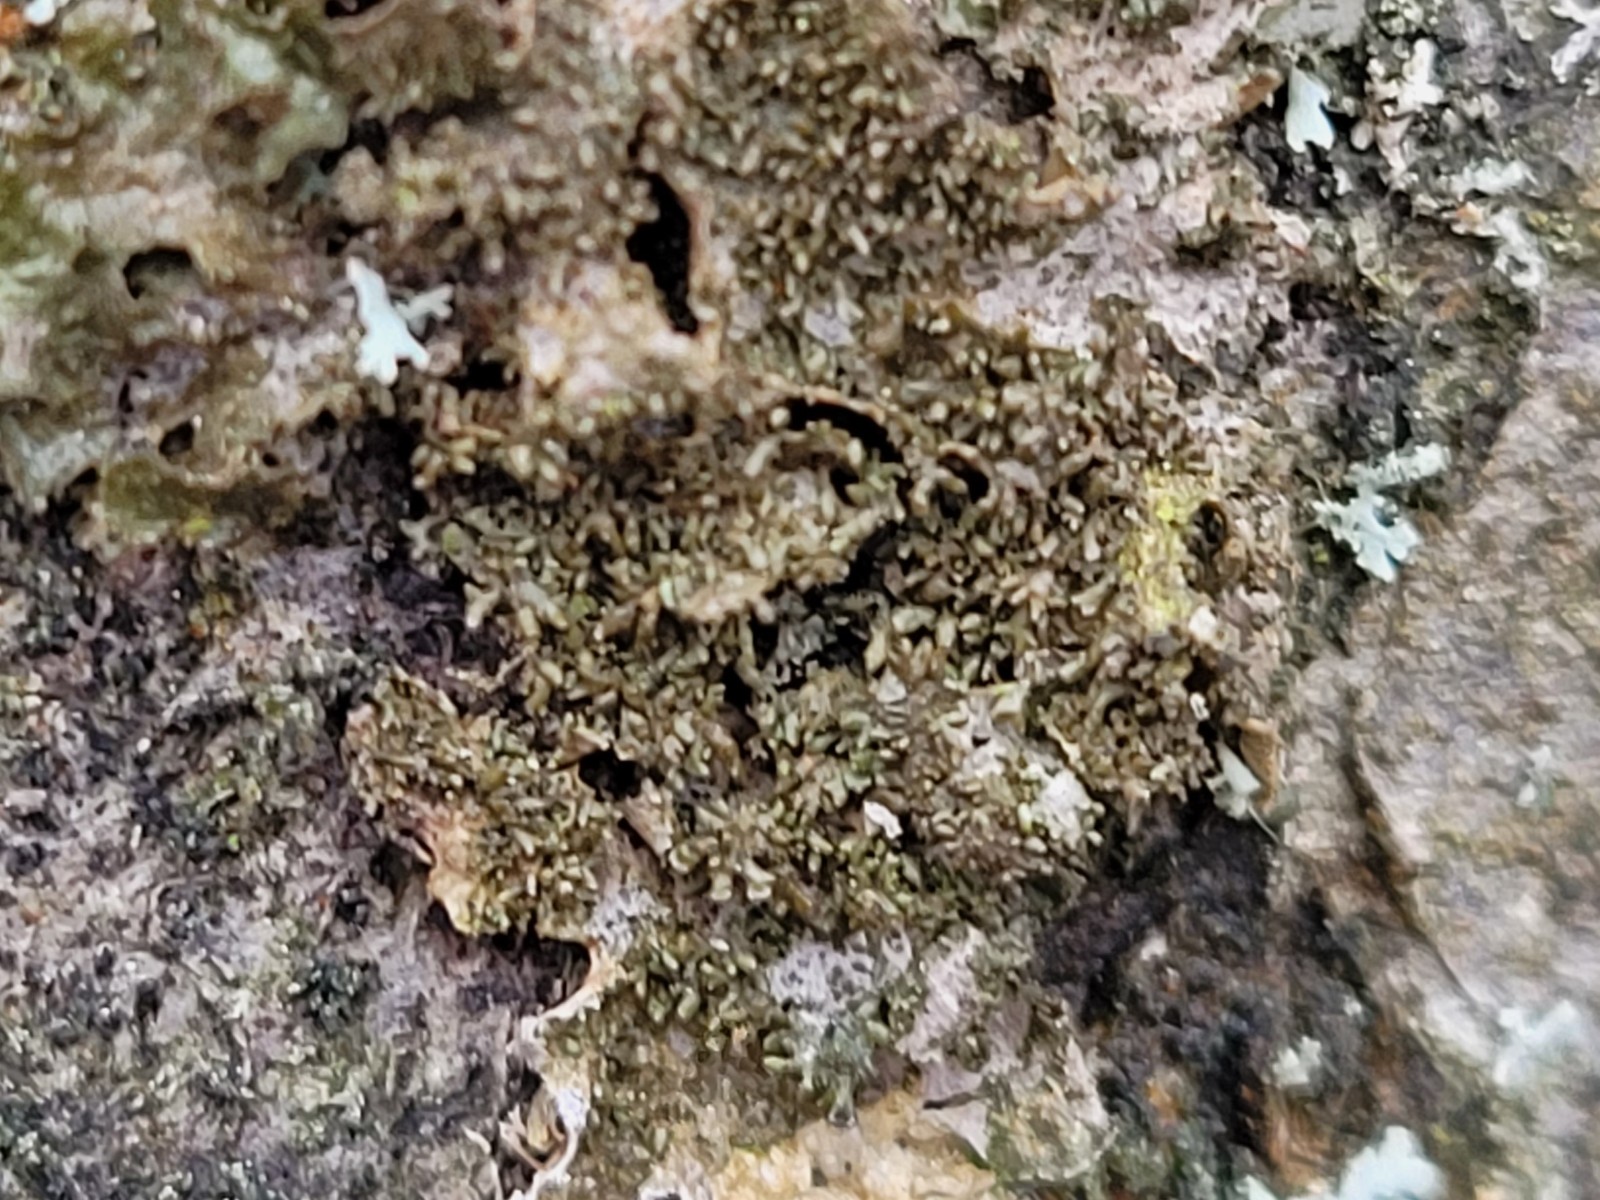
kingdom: Fungi
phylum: Ascomycota
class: Lecanoromycetes
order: Lecanorales
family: Parmeliaceae
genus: Melanohalea
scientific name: Melanohalea exasperatula
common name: kølle-skållav
